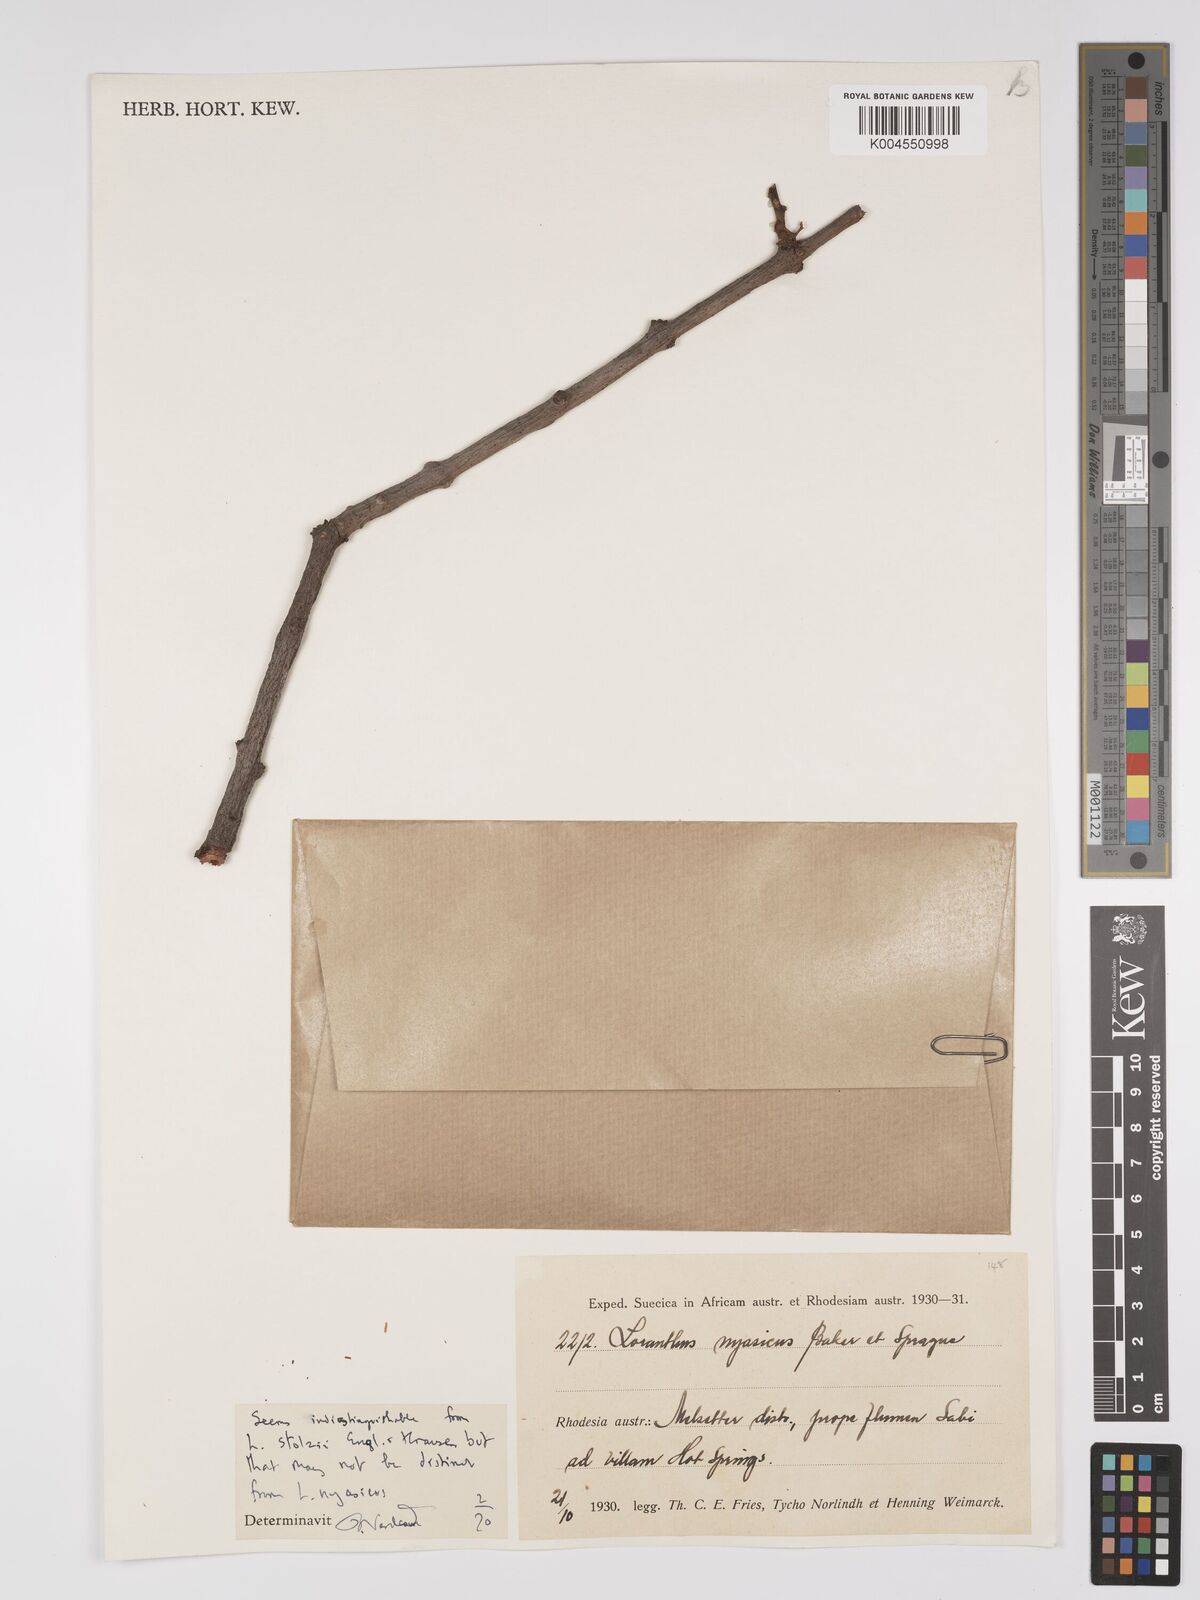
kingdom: Plantae
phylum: Tracheophyta
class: Magnoliopsida
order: Santalales
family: Loranthaceae
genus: Agelanthus
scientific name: Agelanthus nyasicus
